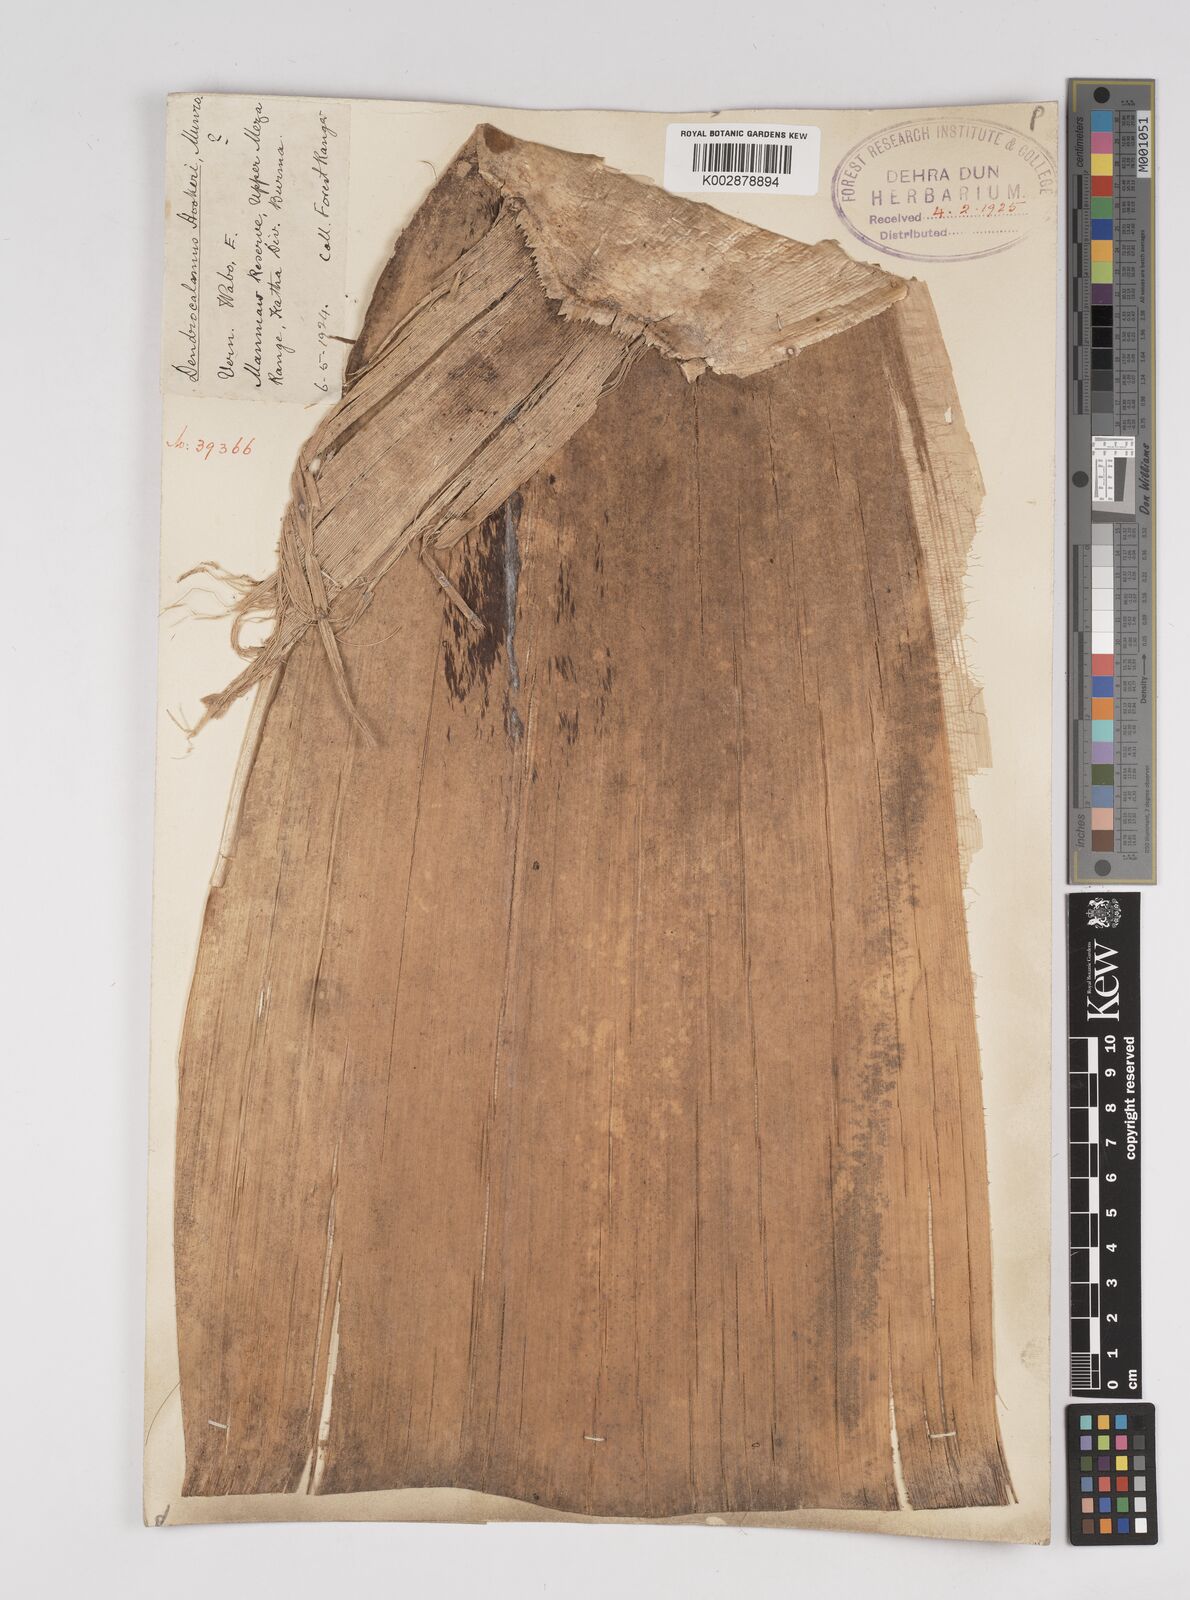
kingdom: Plantae
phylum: Tracheophyta
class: Liliopsida
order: Poales
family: Poaceae
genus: Dendrocalamus
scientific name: Dendrocalamus hookeri
